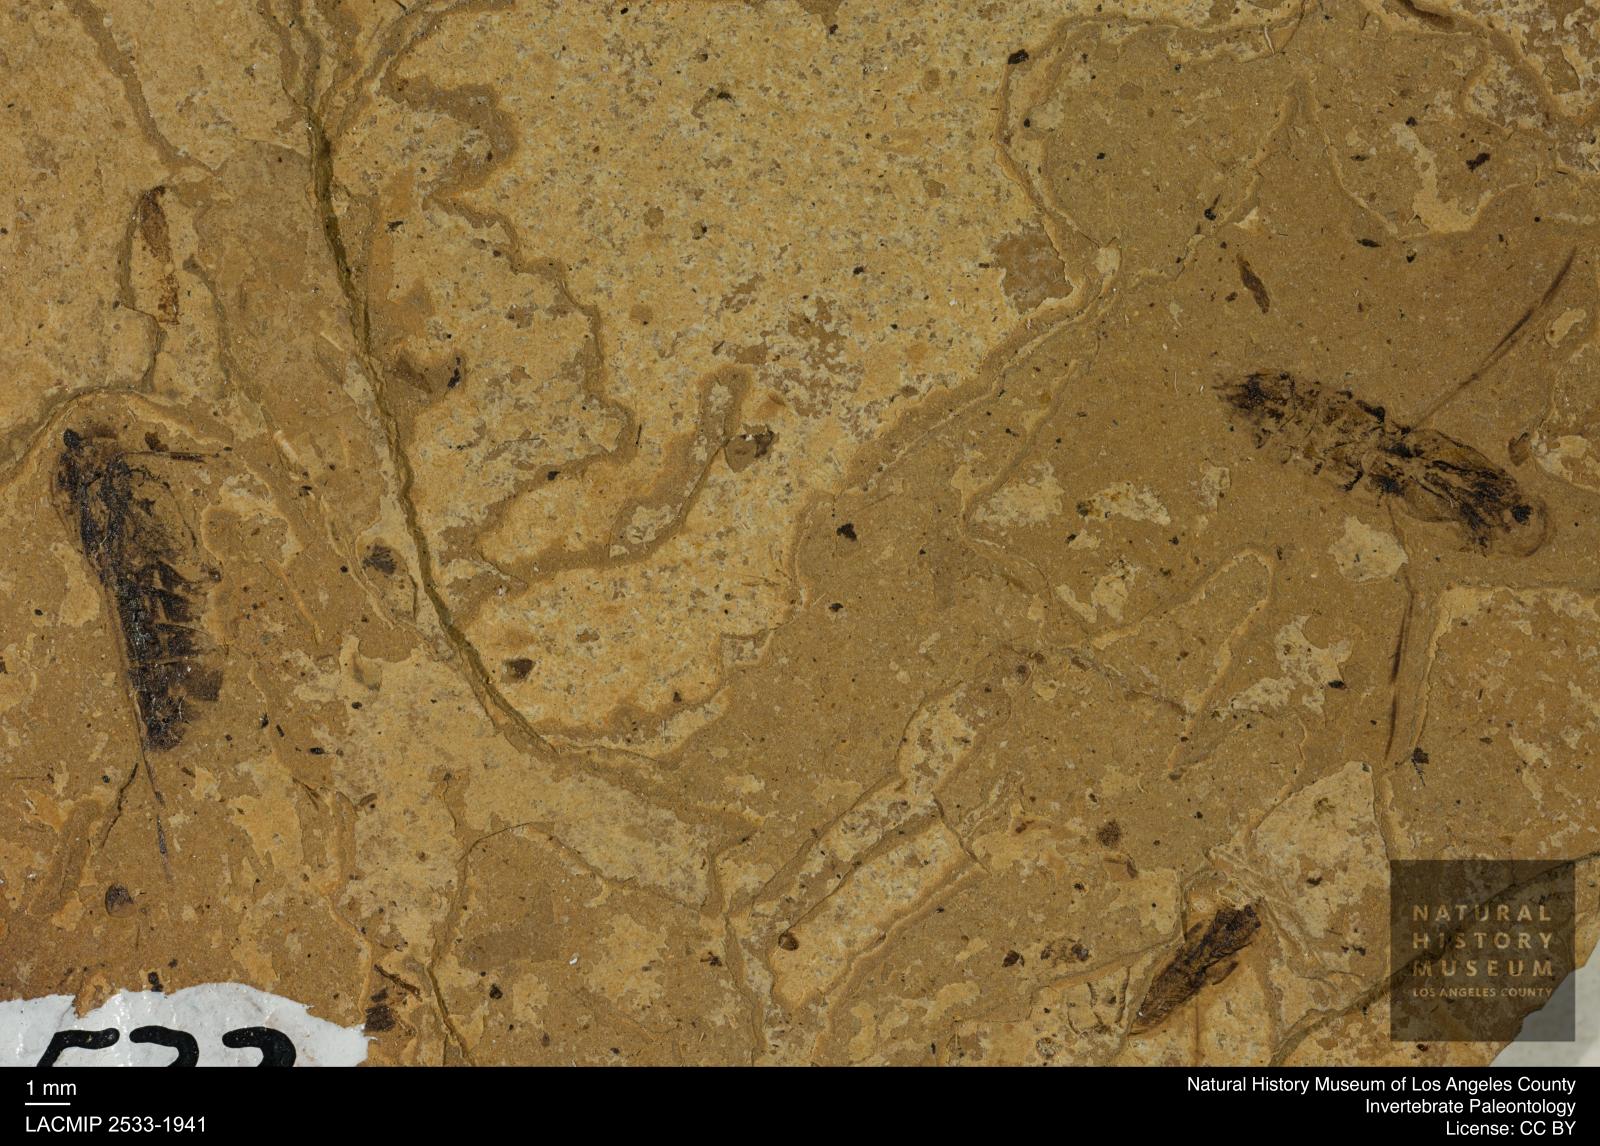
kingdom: Animalia
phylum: Arthropoda
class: Insecta
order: Hemiptera
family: Notonectidae
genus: Anisops
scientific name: Anisops Notonecta deichmuelleri
